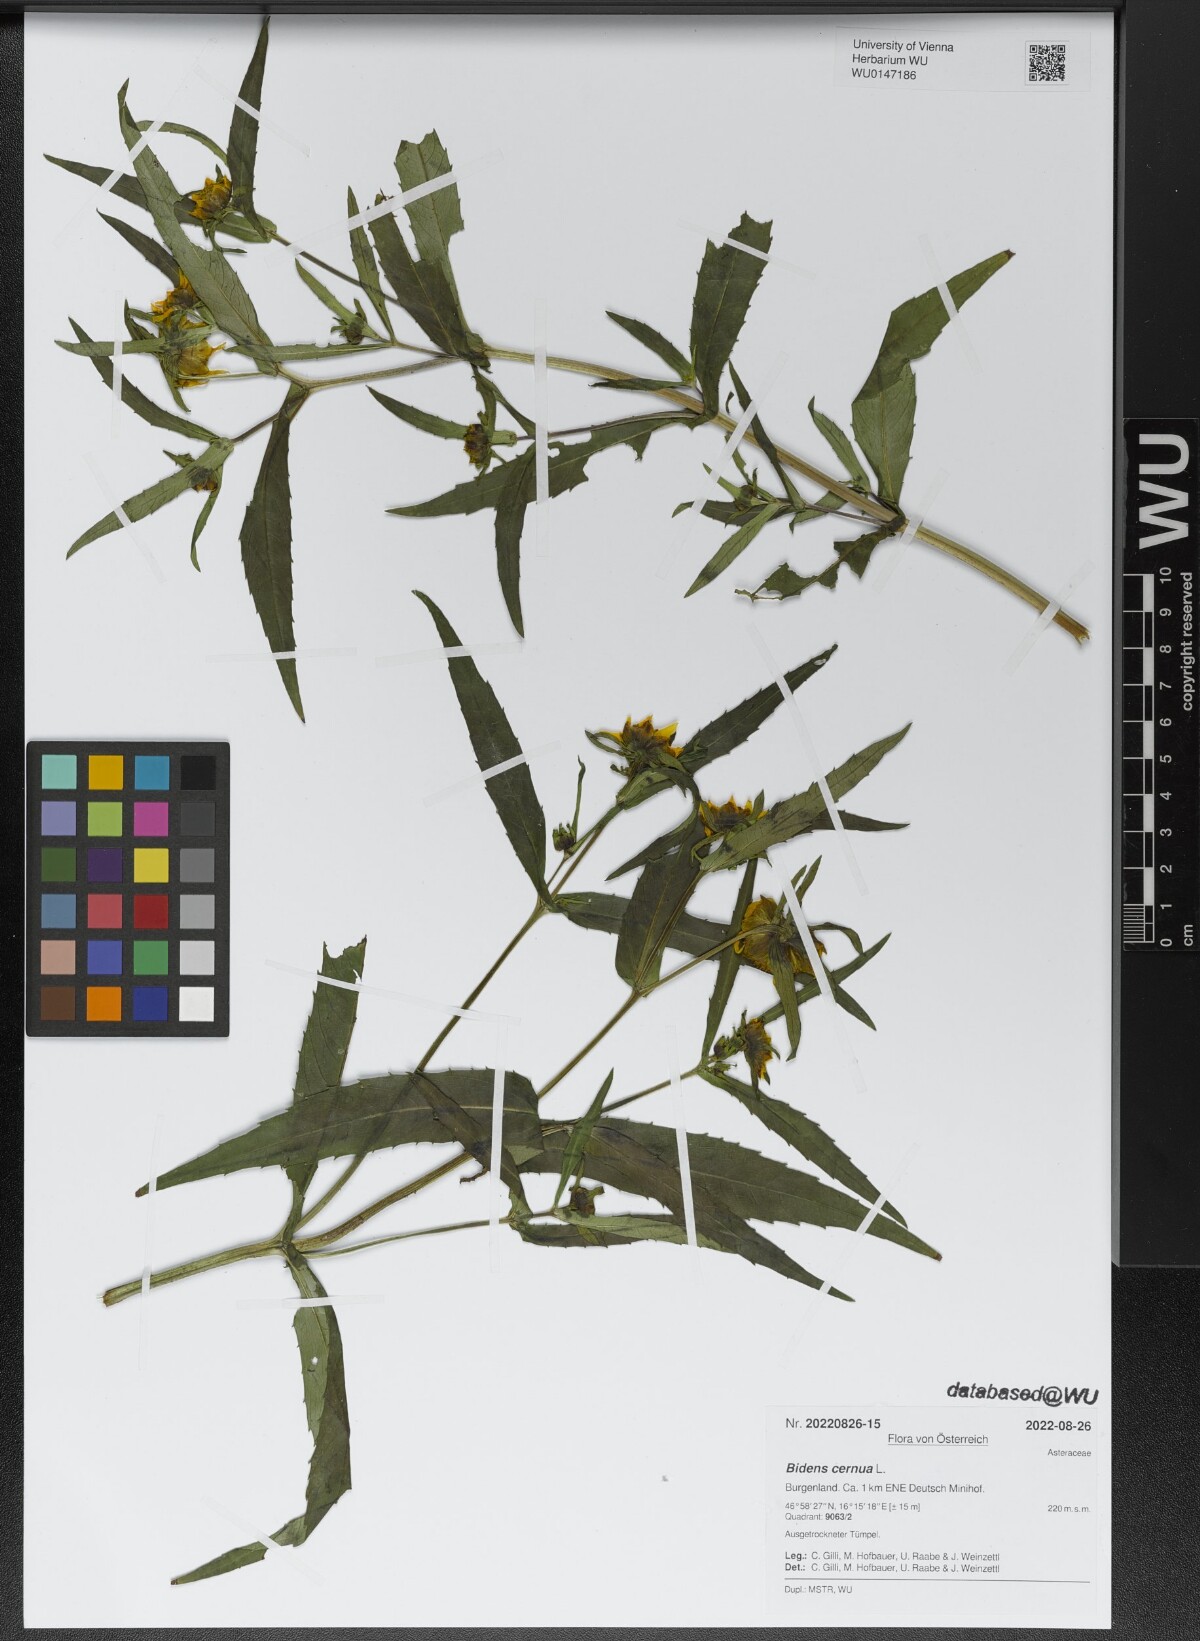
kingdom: Plantae
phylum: Tracheophyta
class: Magnoliopsida
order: Asterales
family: Asteraceae
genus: Bidens
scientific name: Bidens cernua
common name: Nodding bur-marigold
